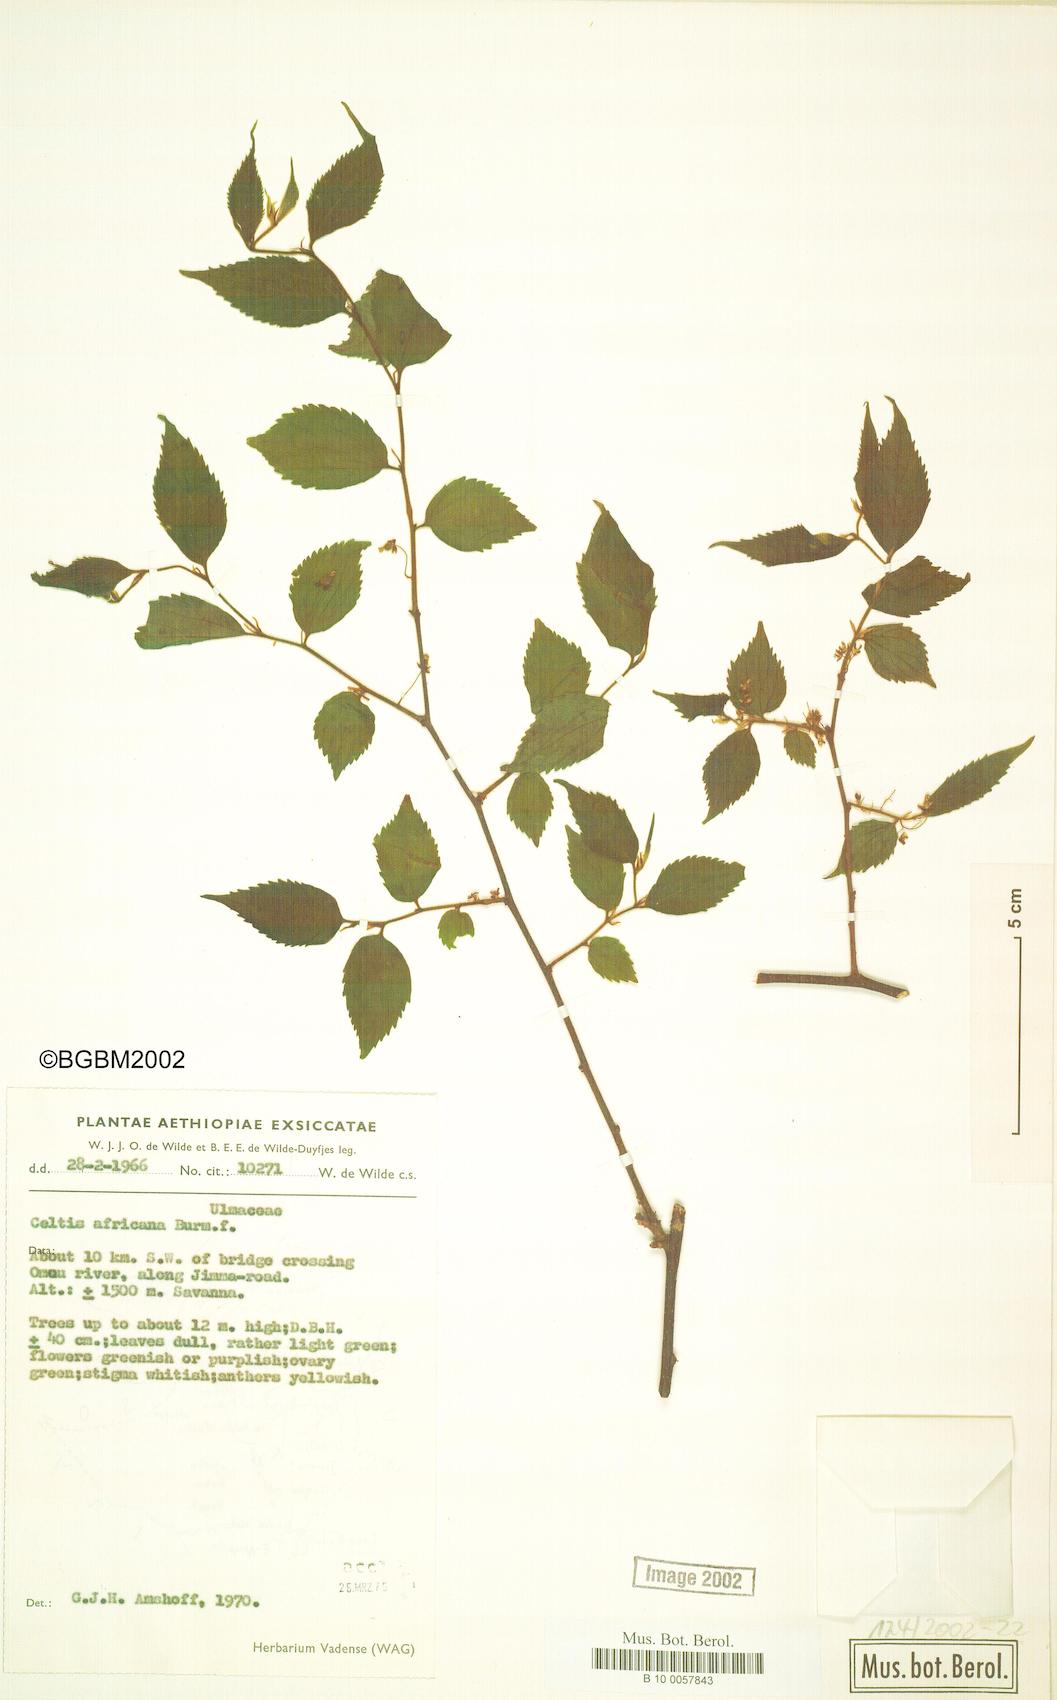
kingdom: Plantae
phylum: Tracheophyta
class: Magnoliopsida
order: Rosales
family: Cannabaceae
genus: Celtis
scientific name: Celtis africana
